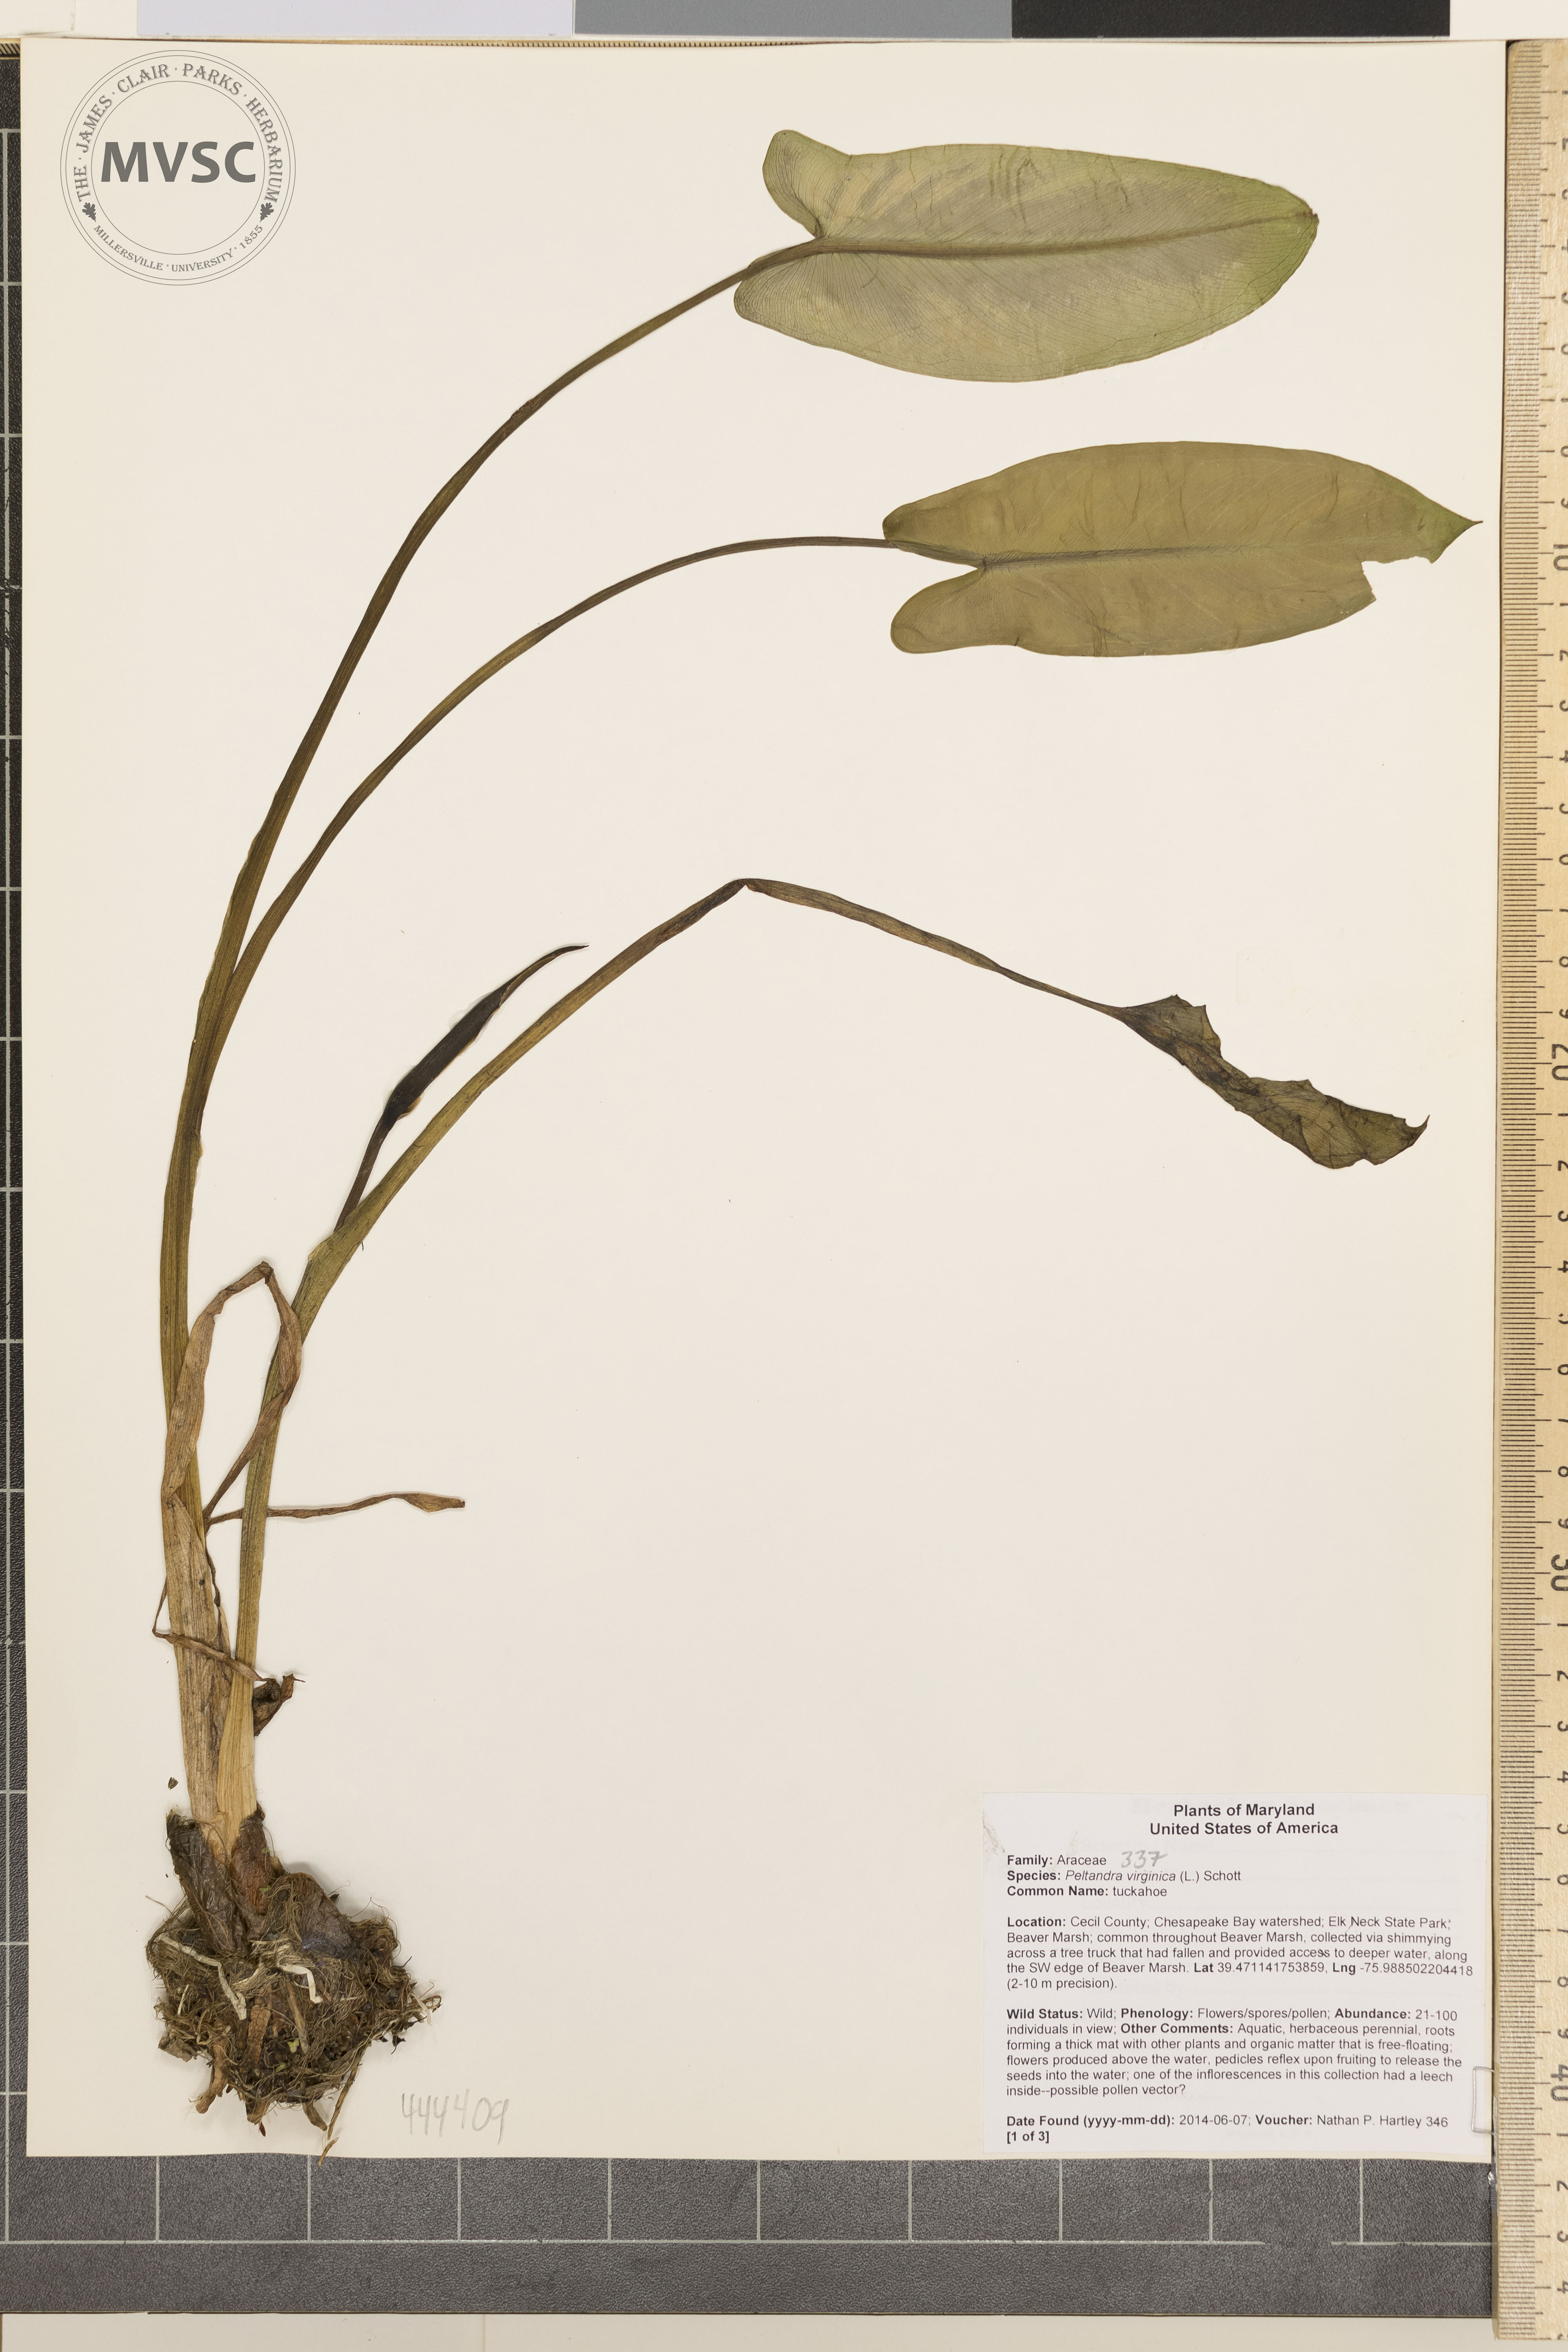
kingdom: Plantae
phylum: Tracheophyta
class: Liliopsida
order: Alismatales
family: Araceae
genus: Peltandra
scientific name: Peltandra virginica
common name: tuckahoe
